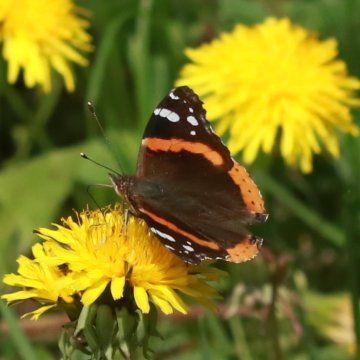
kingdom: Animalia
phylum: Arthropoda
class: Insecta
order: Lepidoptera
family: Nymphalidae
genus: Vanessa
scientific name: Vanessa atalanta
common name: Red Admiral
